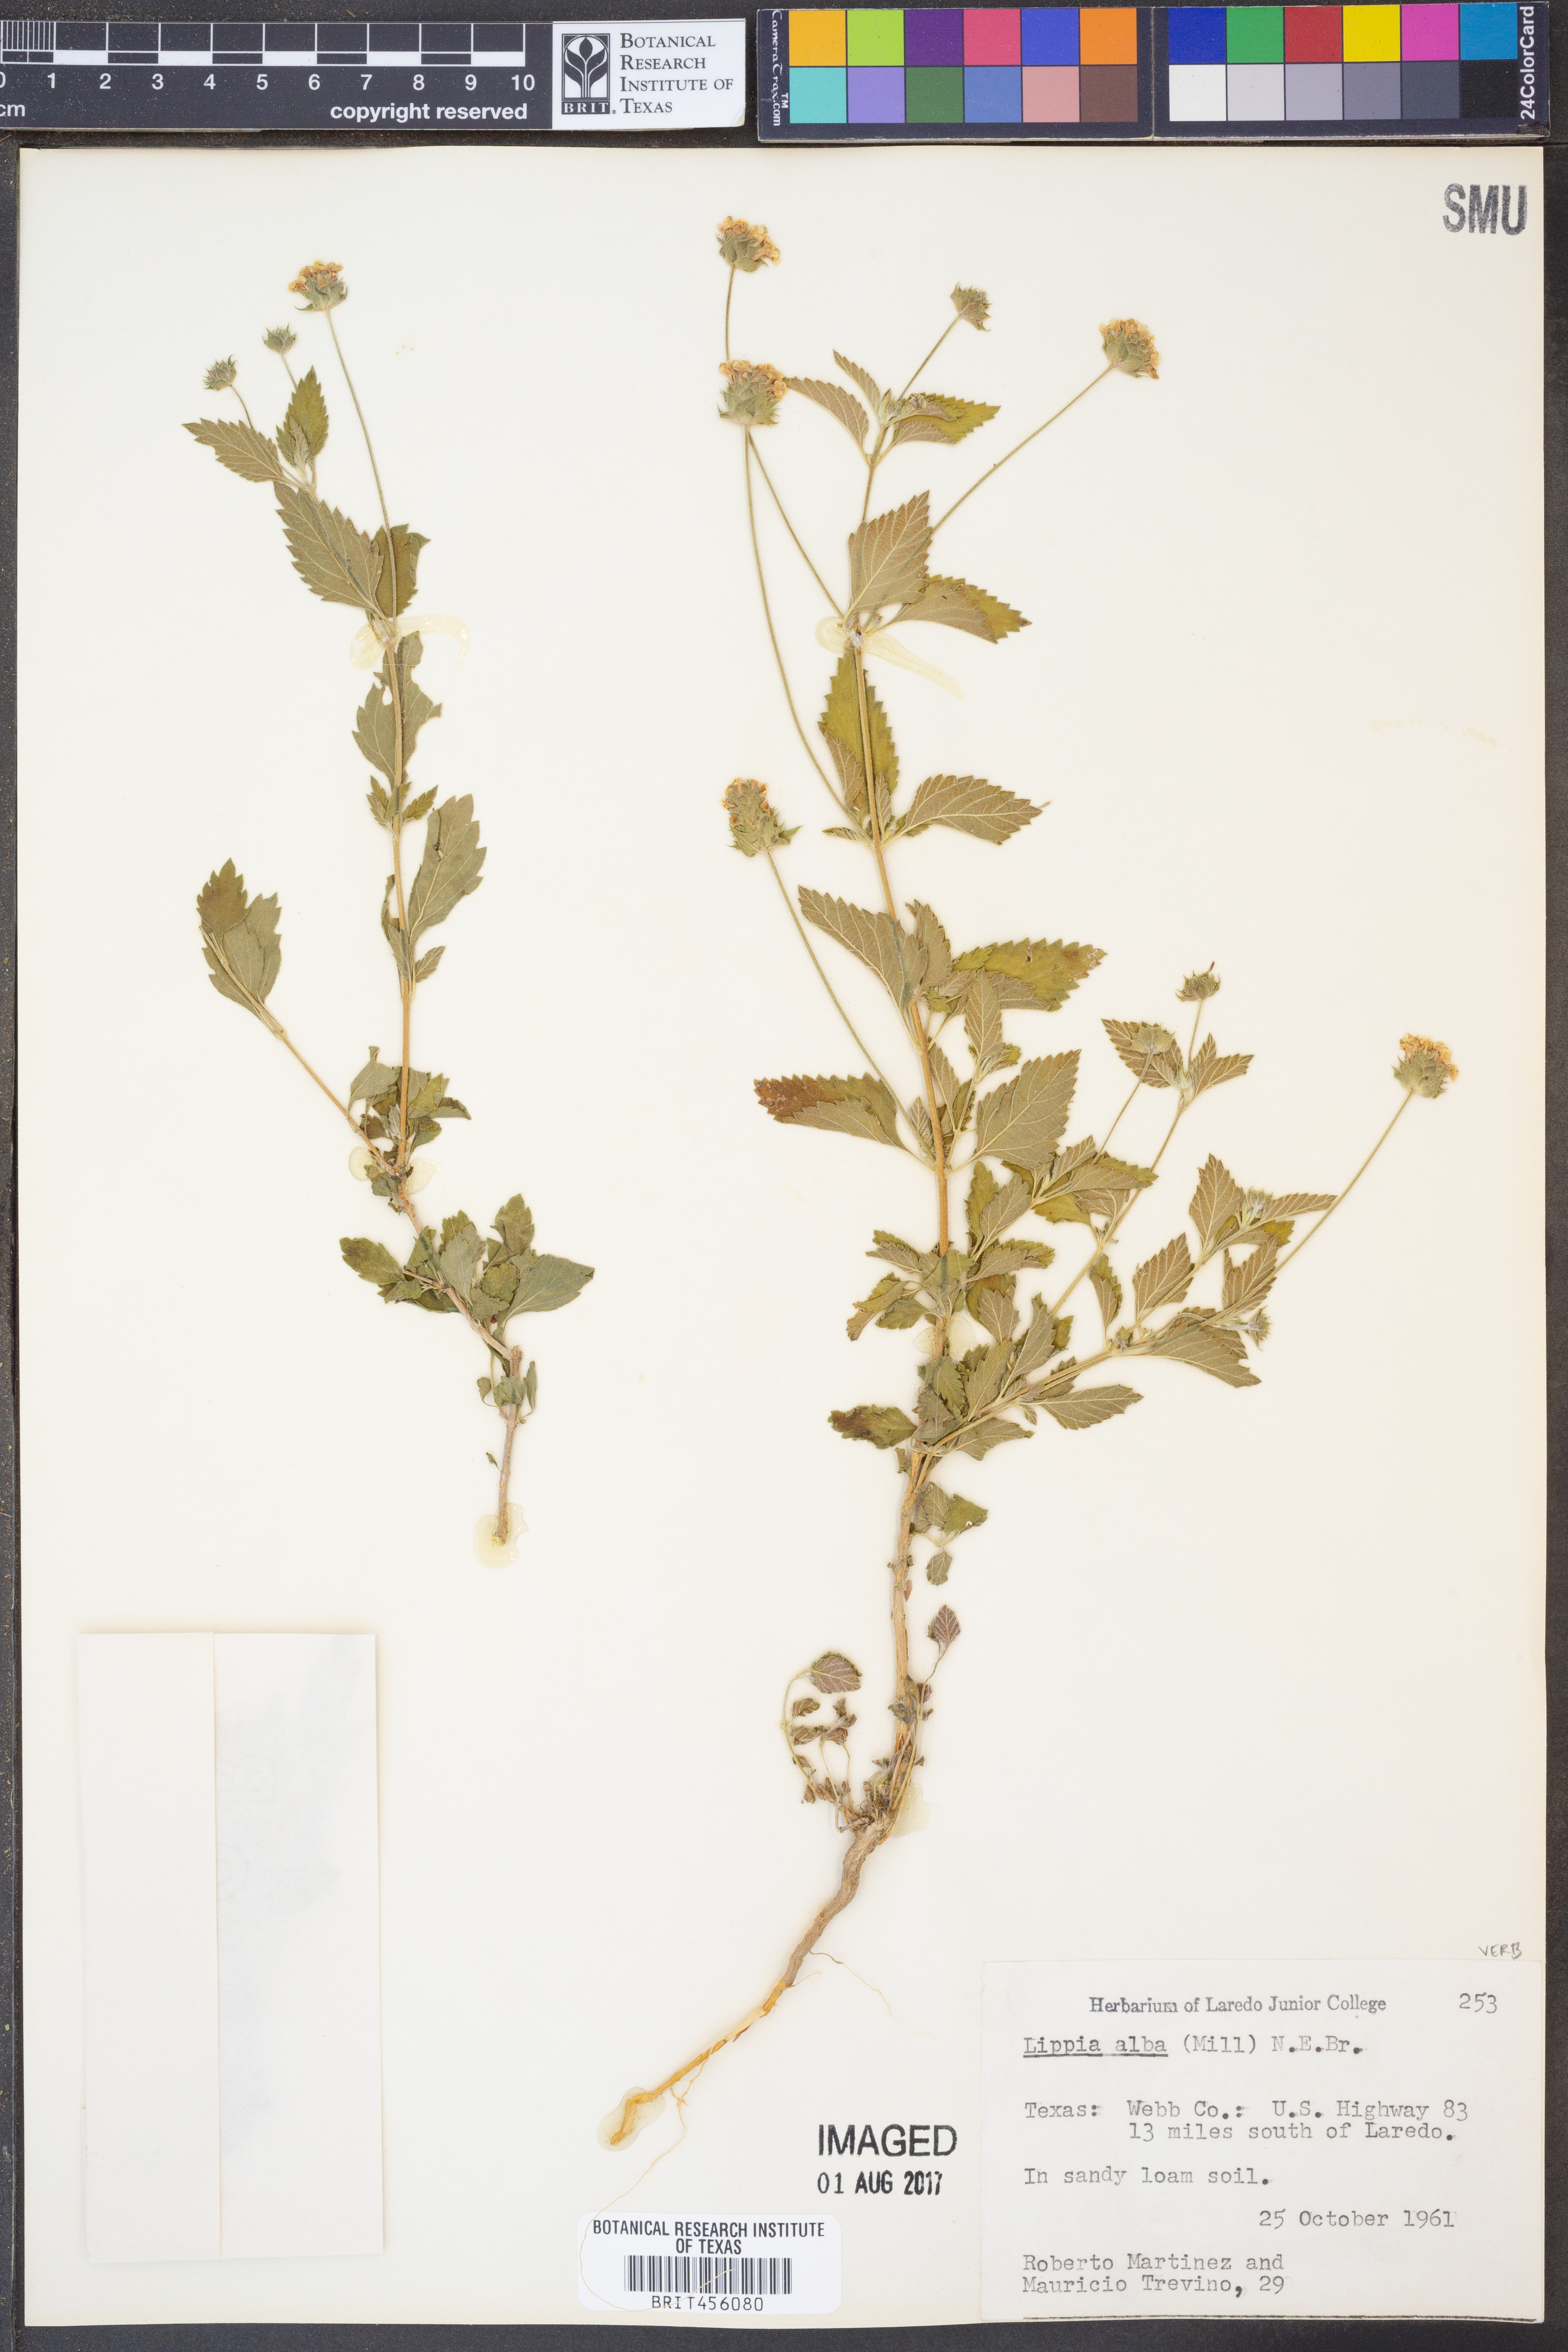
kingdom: Plantae
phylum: Tracheophyta
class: Magnoliopsida
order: Lamiales
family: Verbenaceae
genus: Lippia
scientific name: Lippia alba
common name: Bushy matgrass
